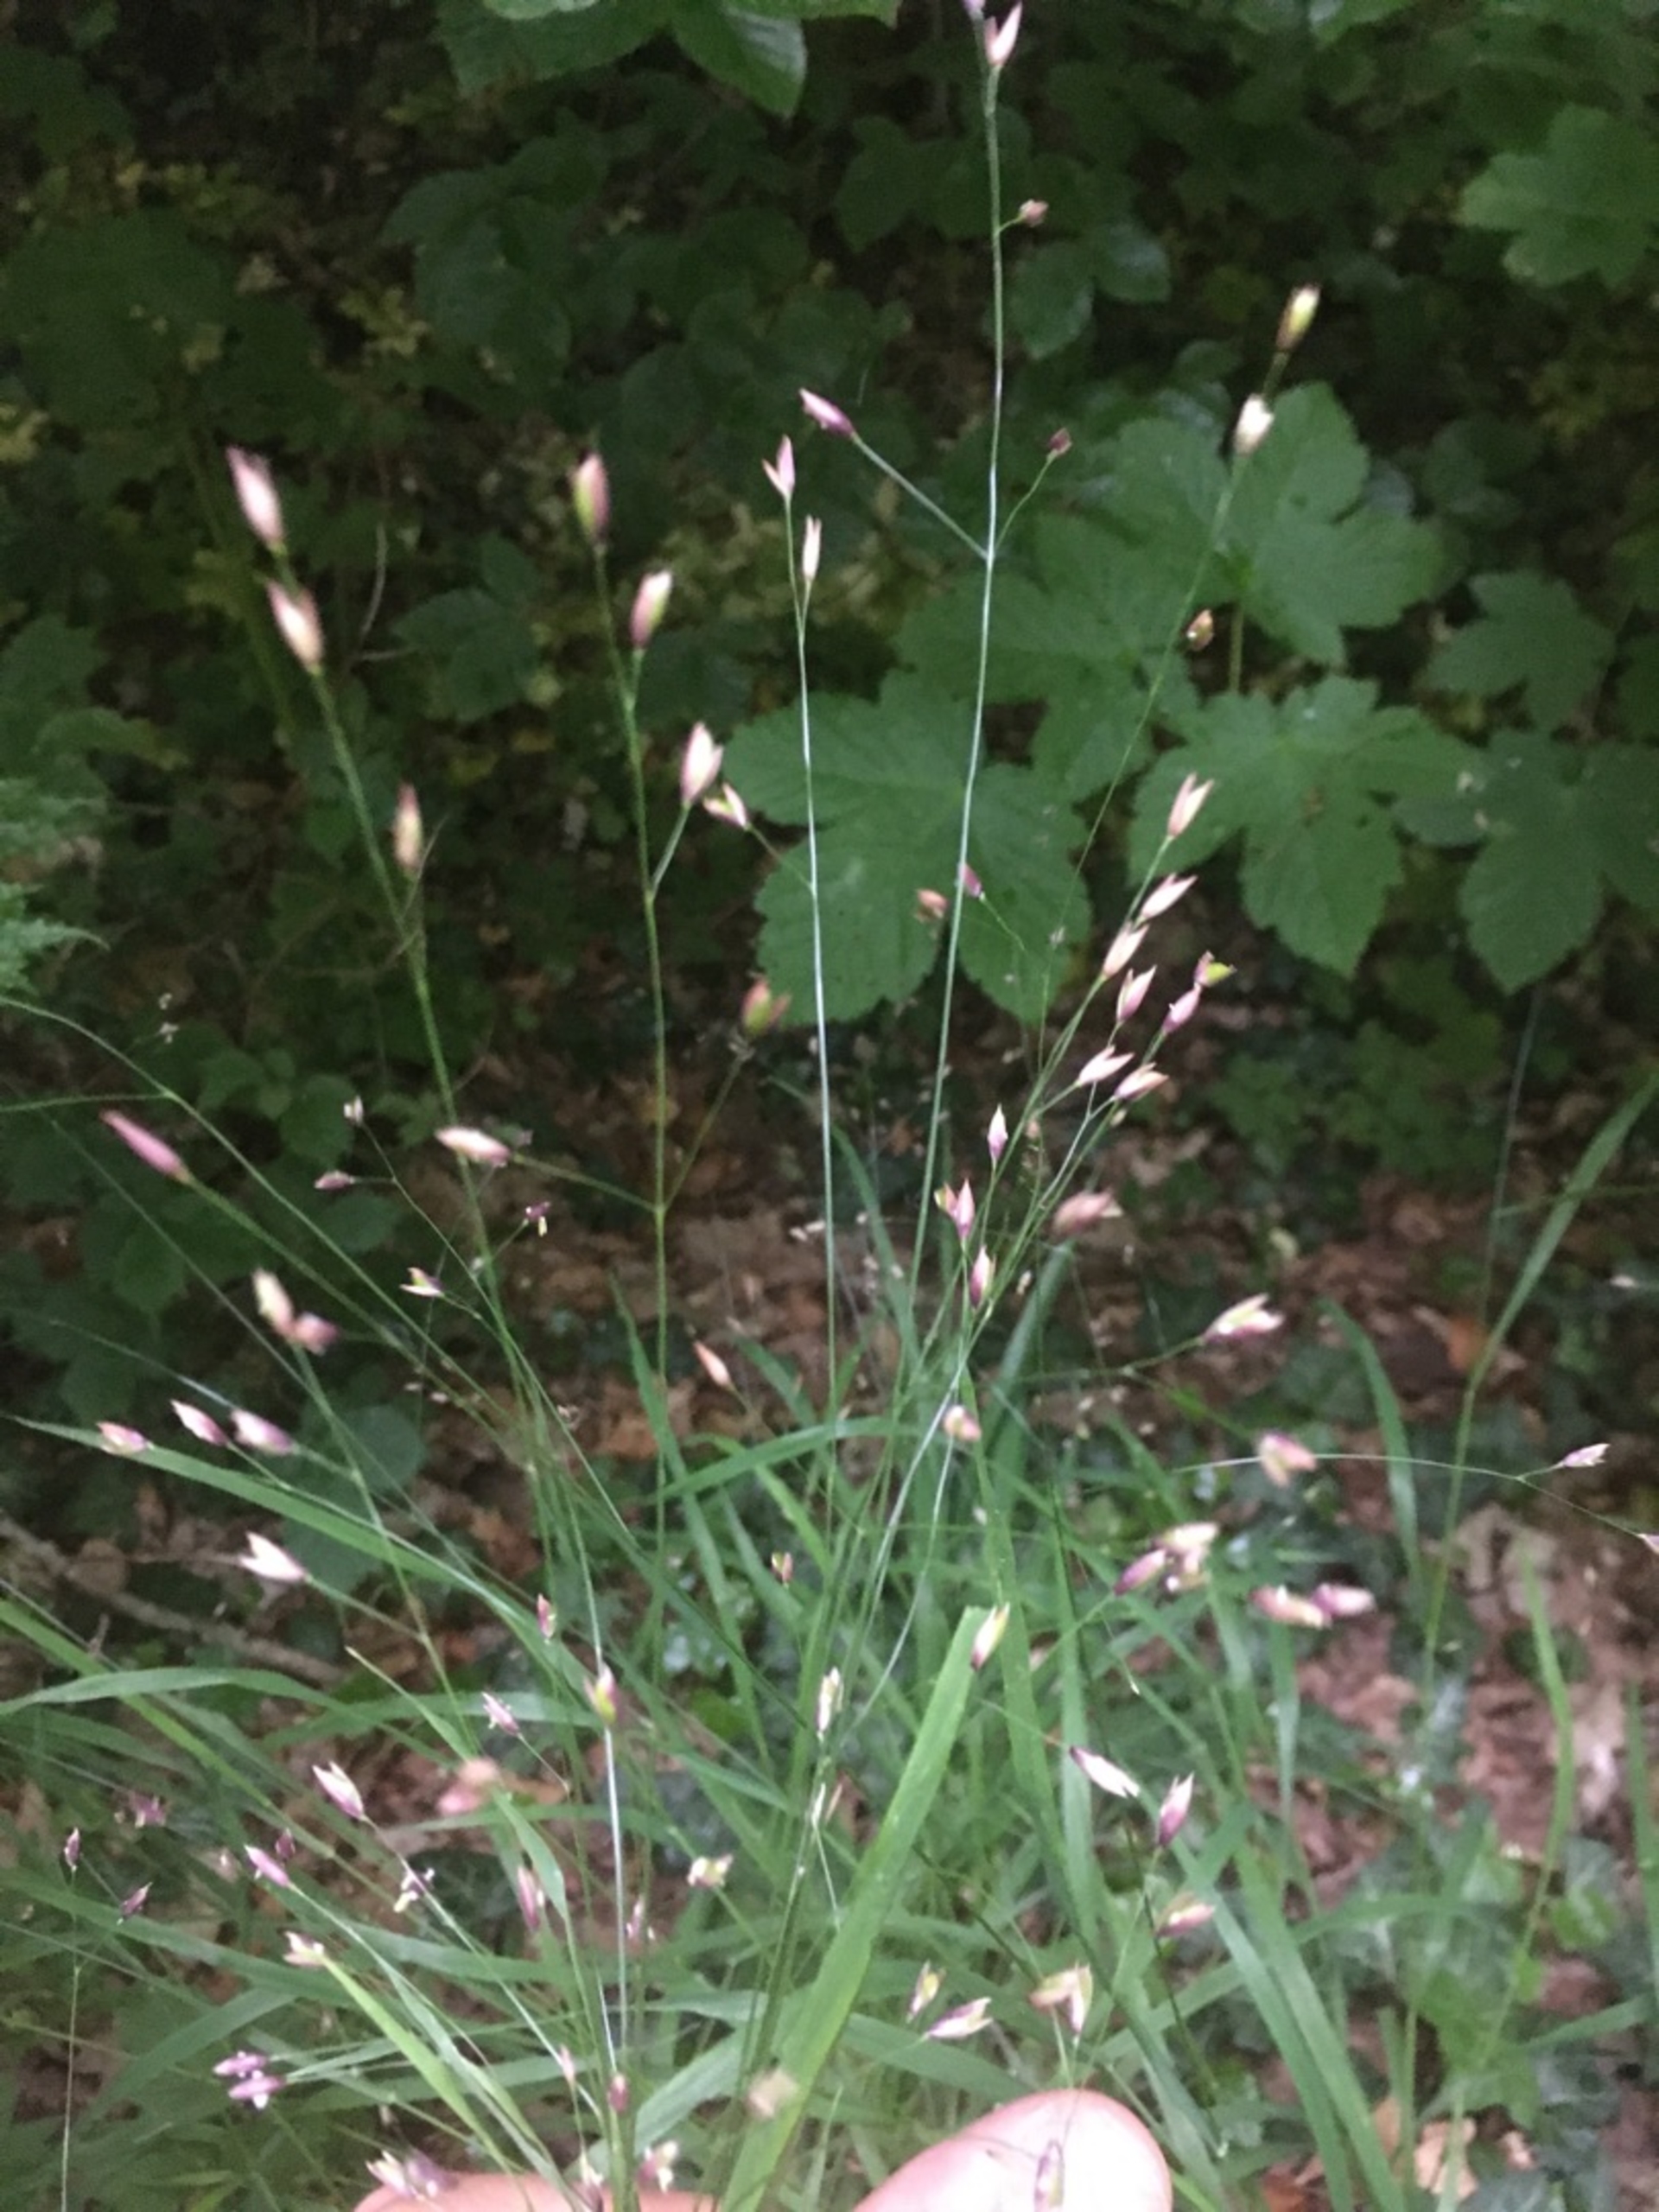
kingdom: Plantae
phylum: Tracheophyta
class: Liliopsida
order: Poales
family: Poaceae
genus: Melica
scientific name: Melica uniflora
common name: Enblomstret flitteraks
